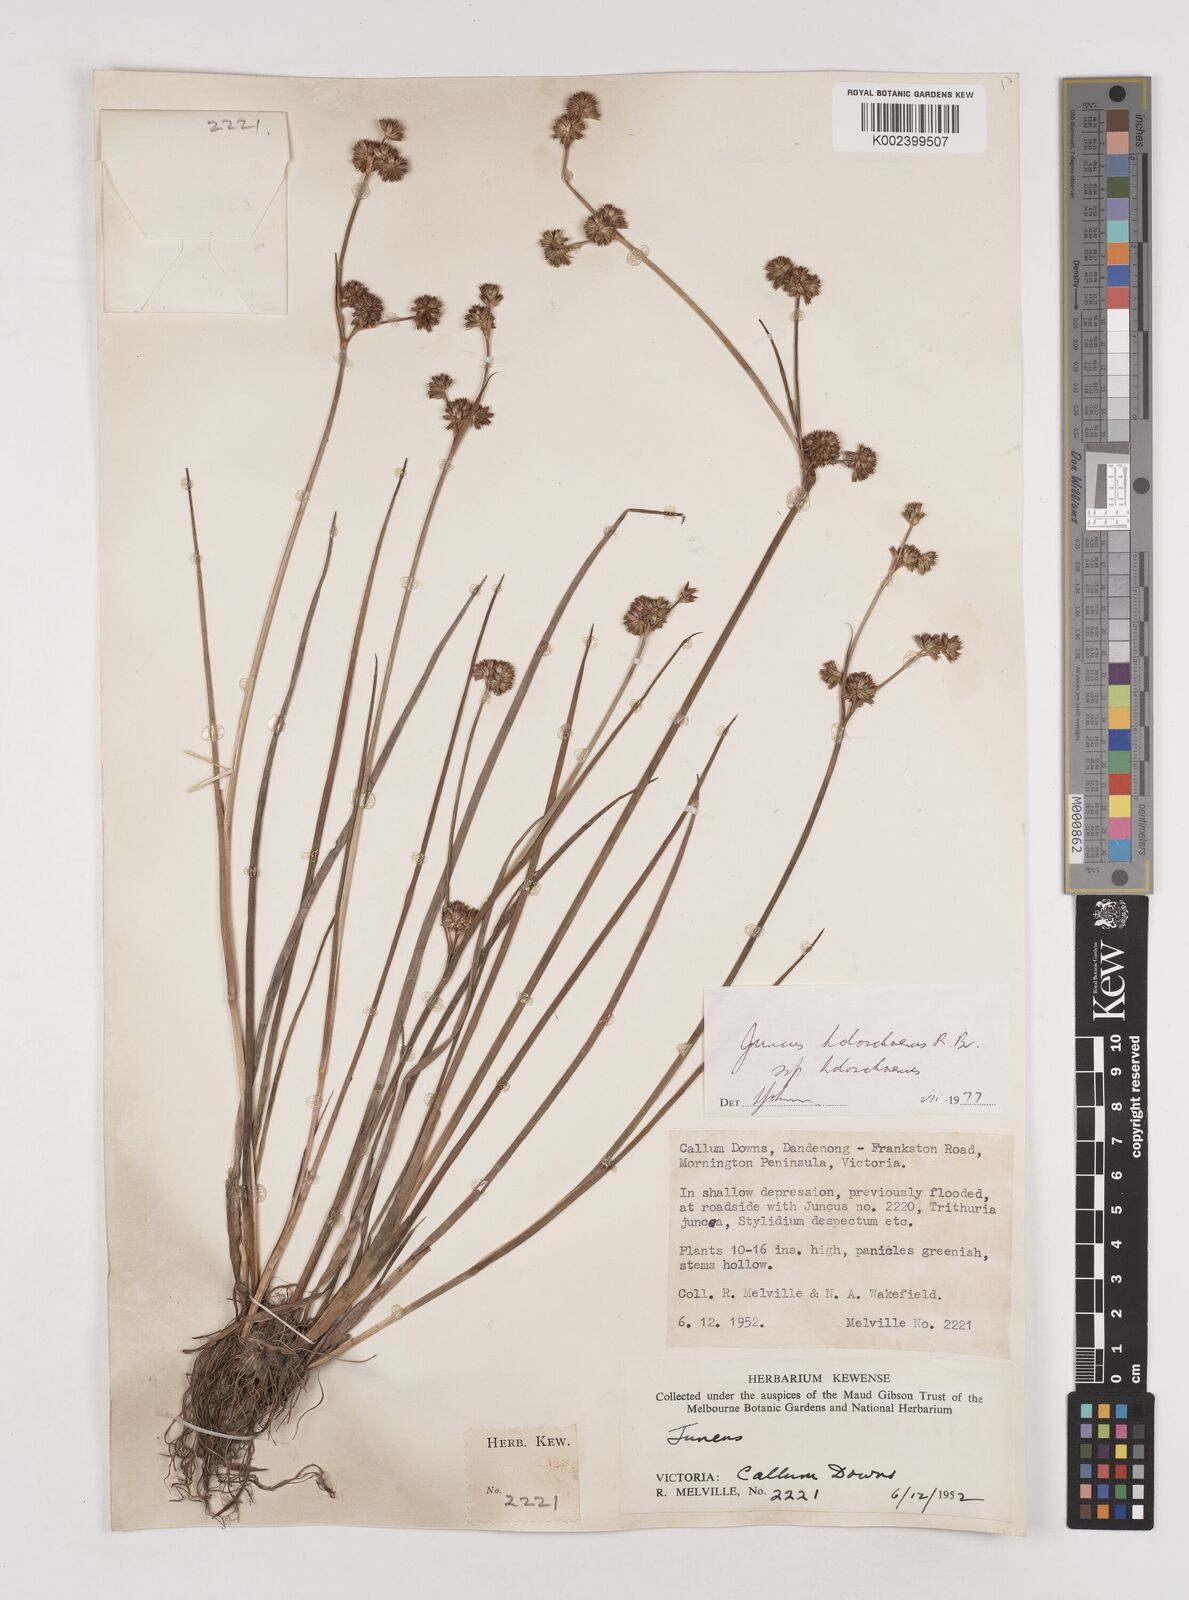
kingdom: Plantae
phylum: Tracheophyta
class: Liliopsida
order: Poales
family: Juncaceae
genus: Juncus
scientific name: Juncus holoschoenus
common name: Joint-leaf rush
